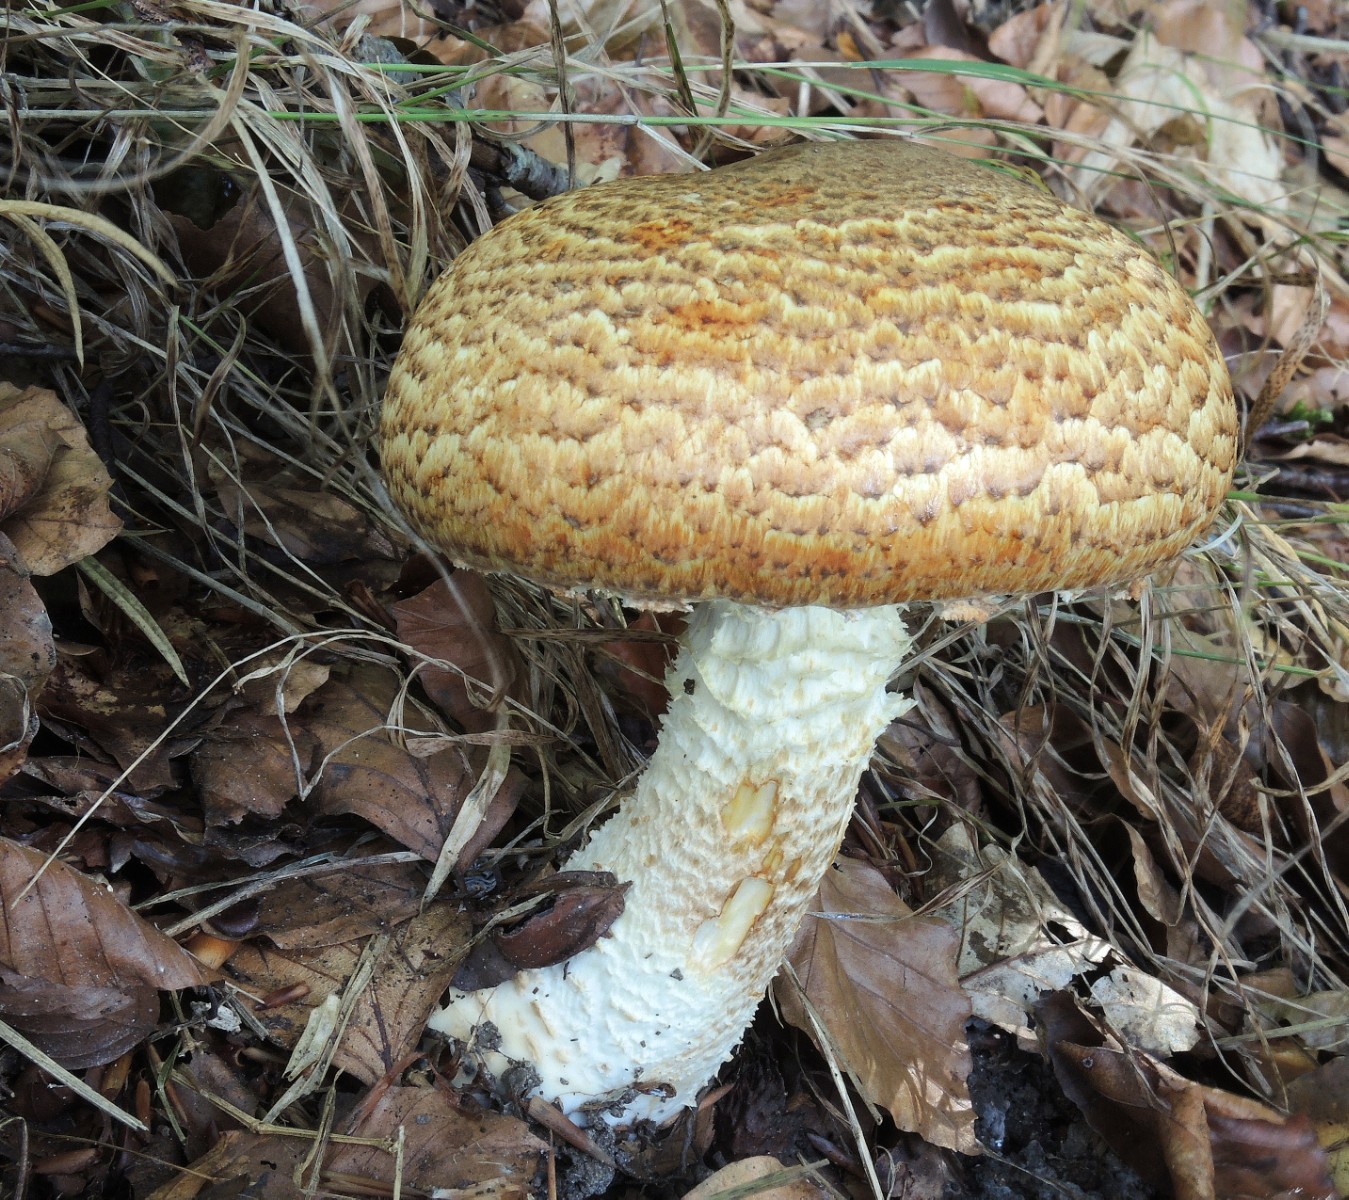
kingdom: Fungi
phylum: Basidiomycota
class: Agaricomycetes
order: Agaricales
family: Agaricaceae
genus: Agaricus
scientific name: Agaricus augustus
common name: prægtig champignon
